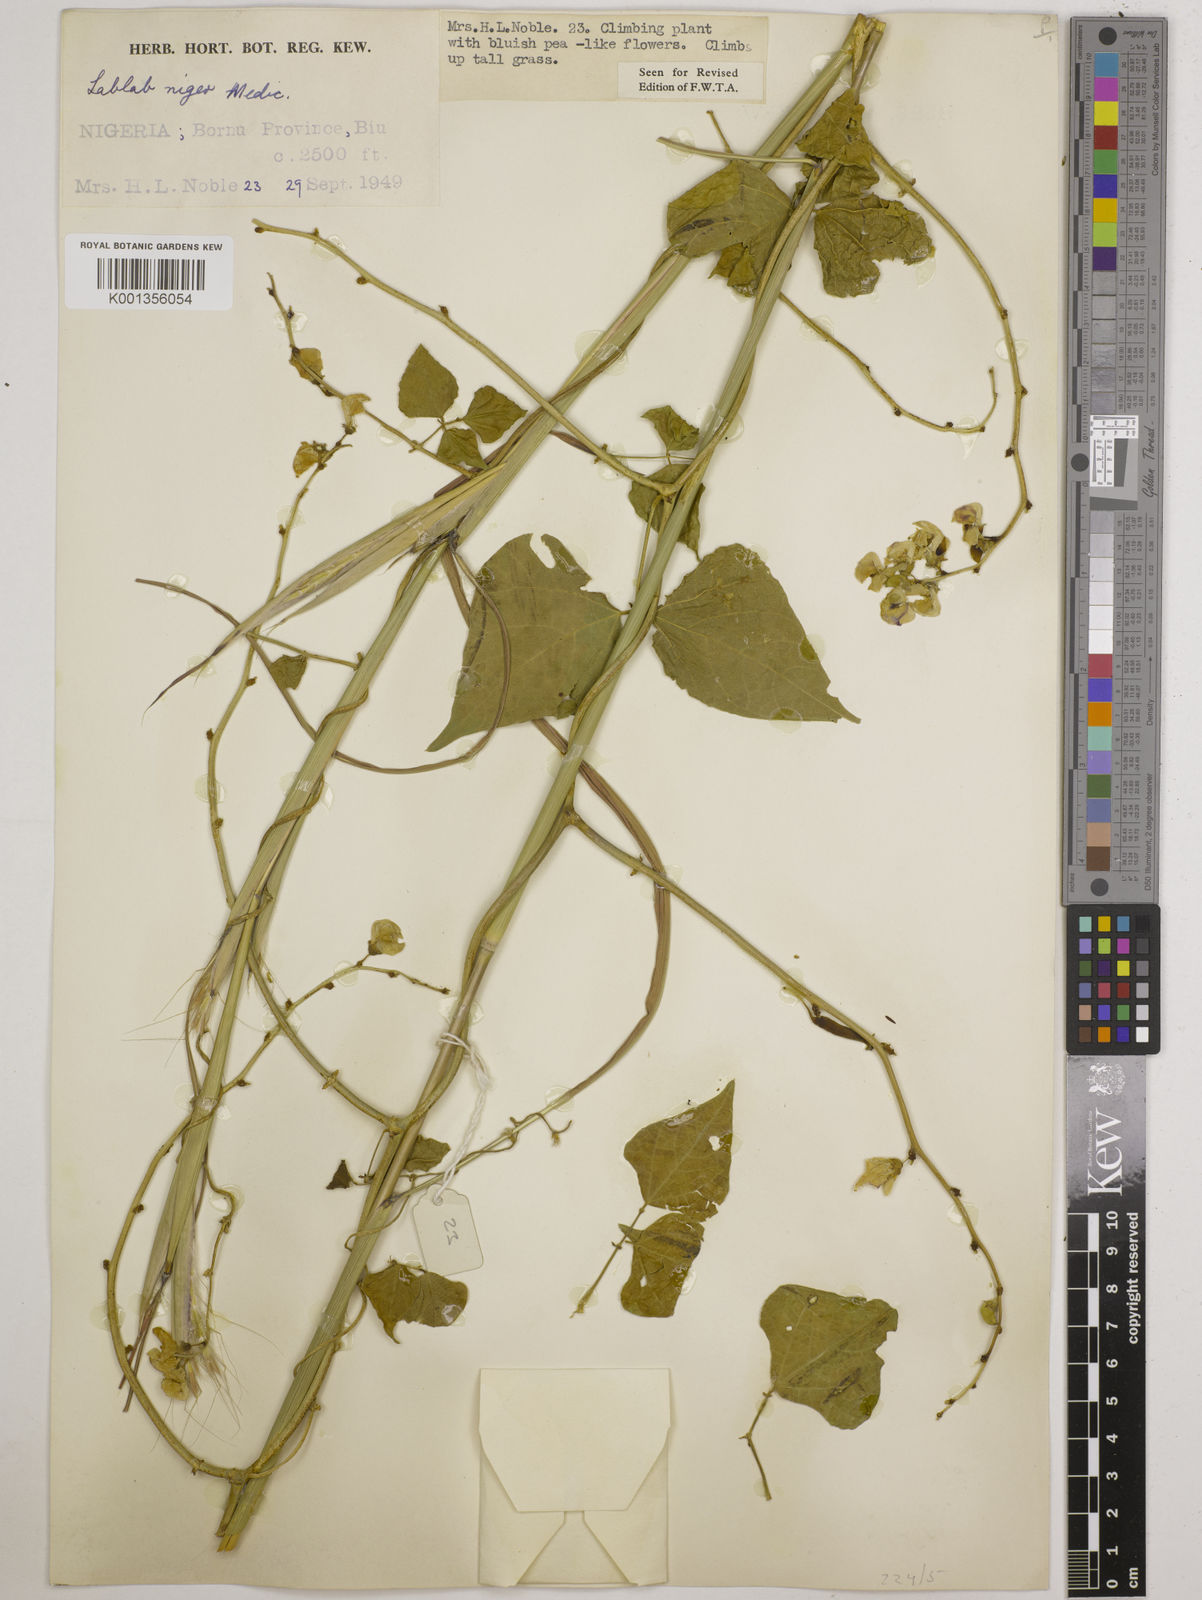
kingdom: Plantae
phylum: Tracheophyta
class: Magnoliopsida
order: Fabales
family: Fabaceae
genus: Lablab
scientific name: Lablab purpureus
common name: Lablab-bean
